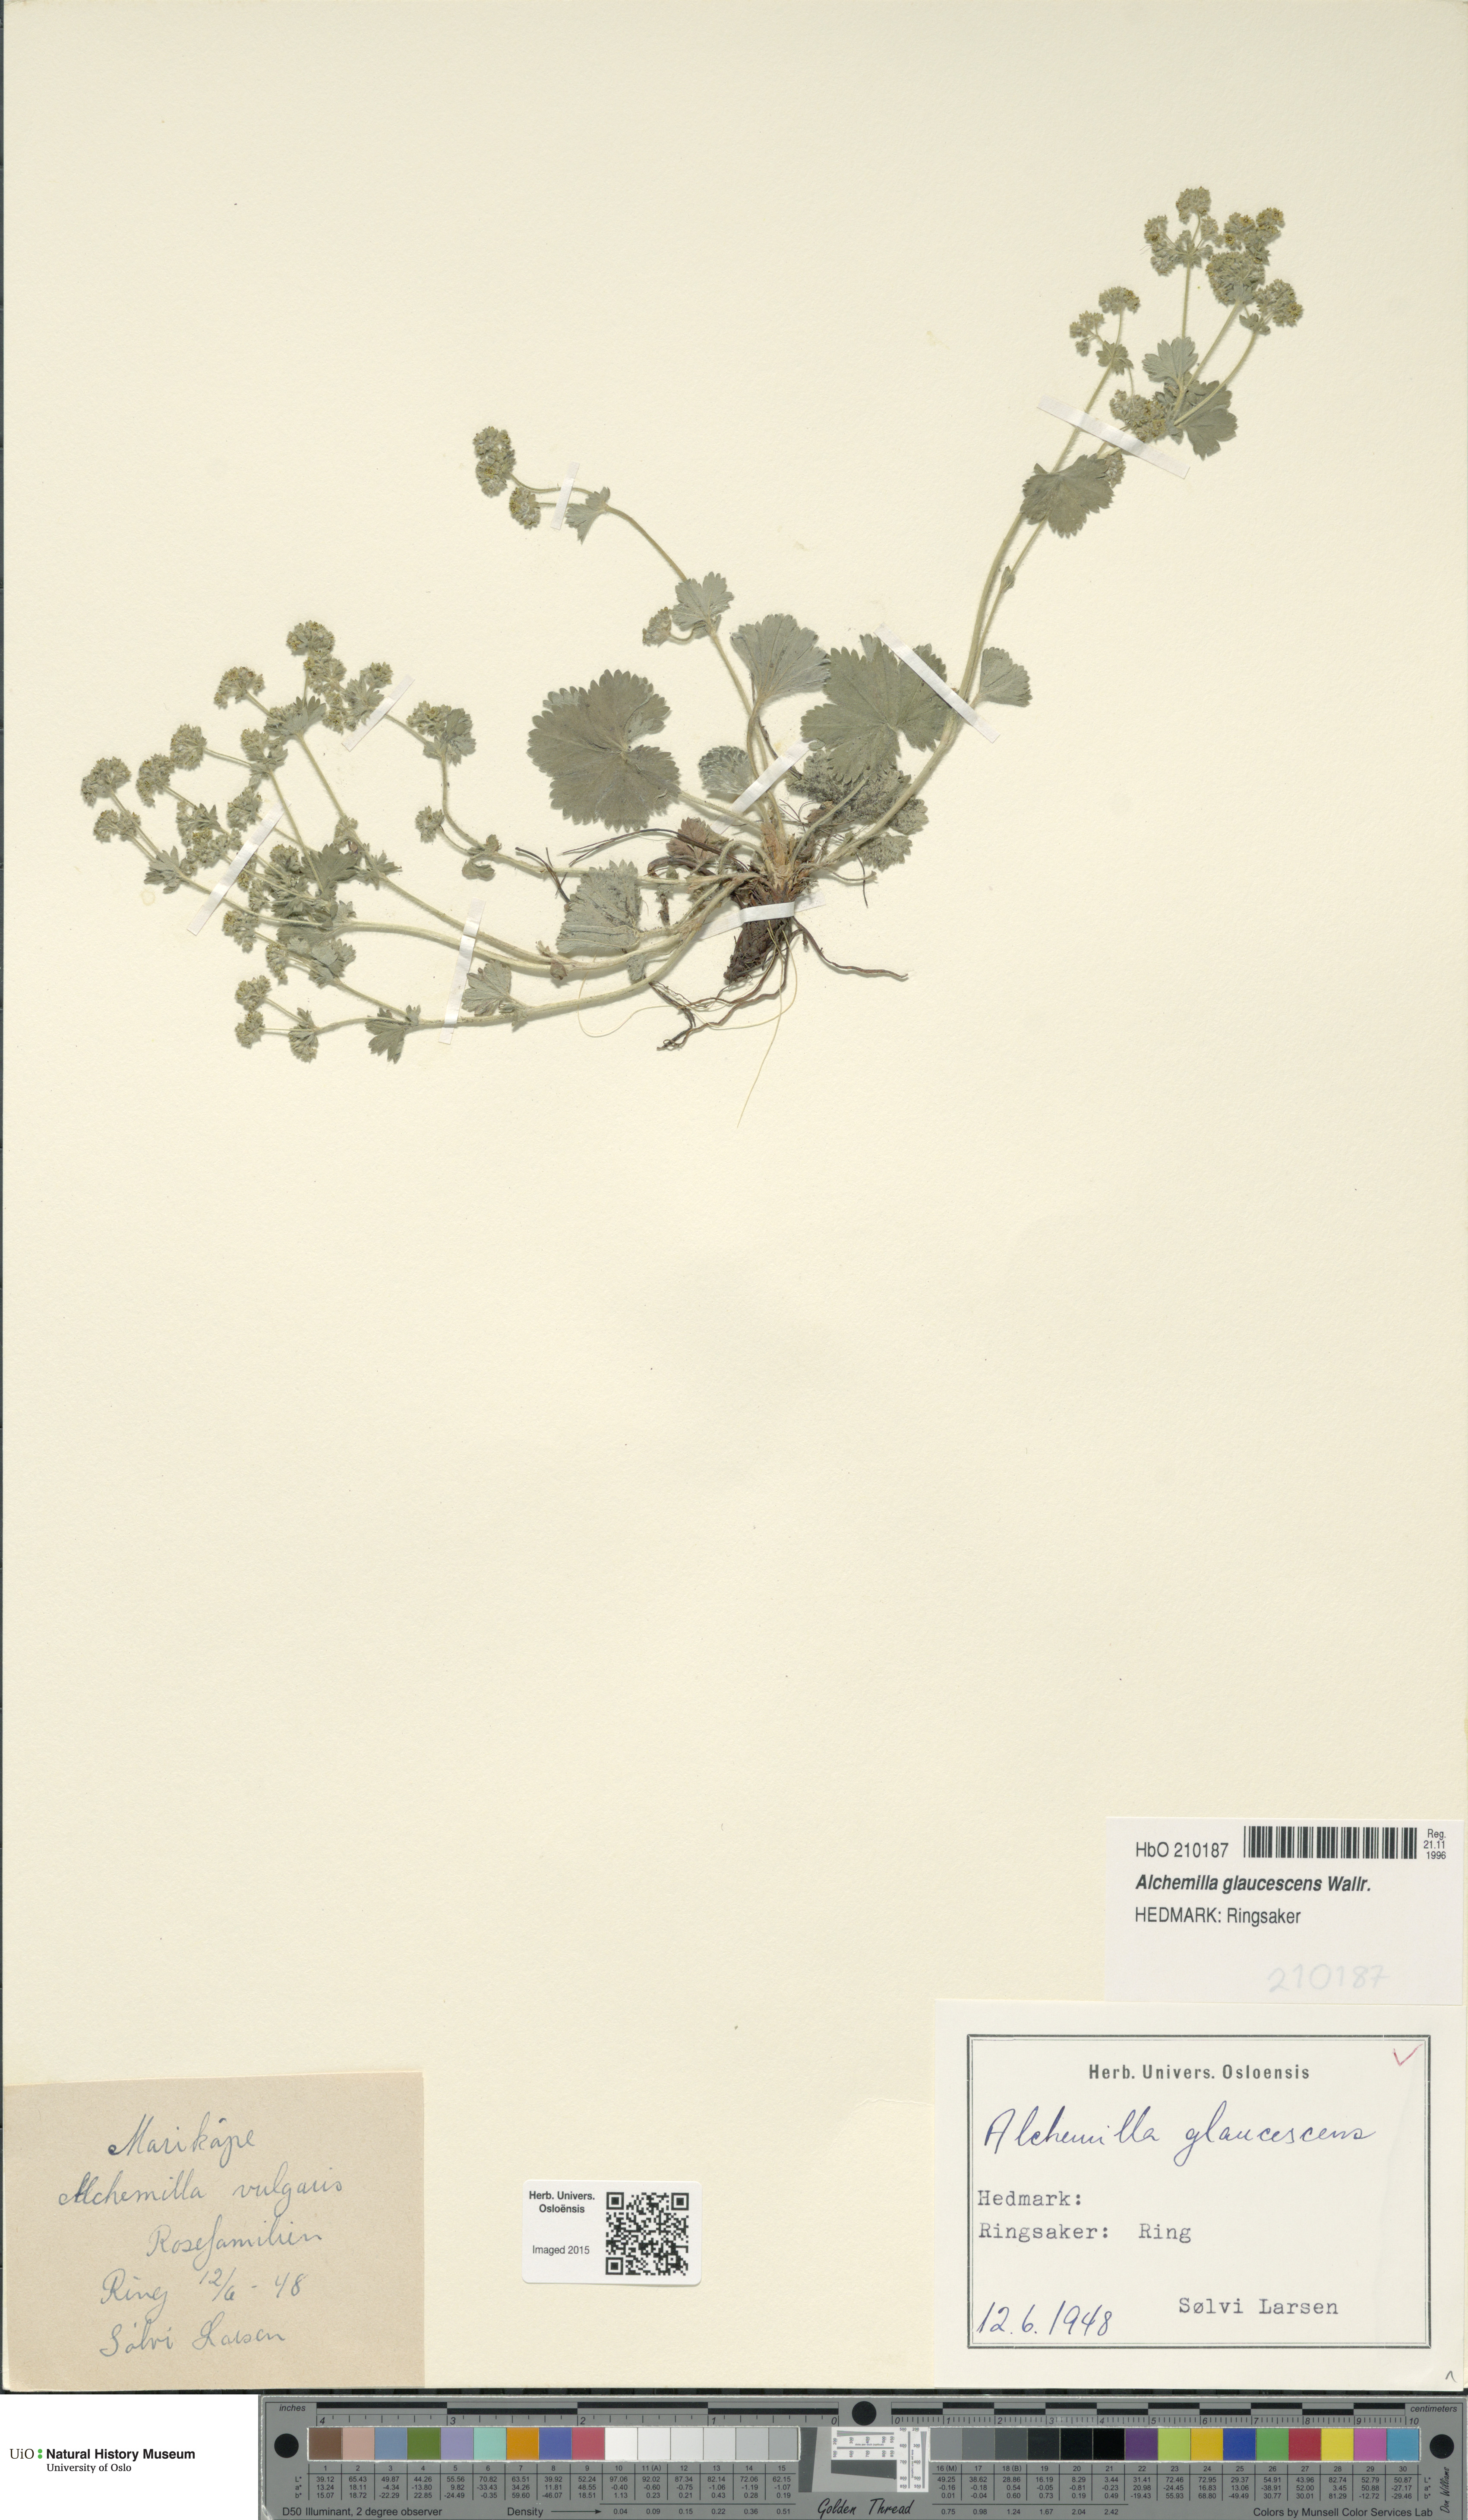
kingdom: Plantae
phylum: Tracheophyta
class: Magnoliopsida
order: Rosales
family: Rosaceae
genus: Alchemilla
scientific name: Alchemilla glaucescens
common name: Silky lady's mantle
